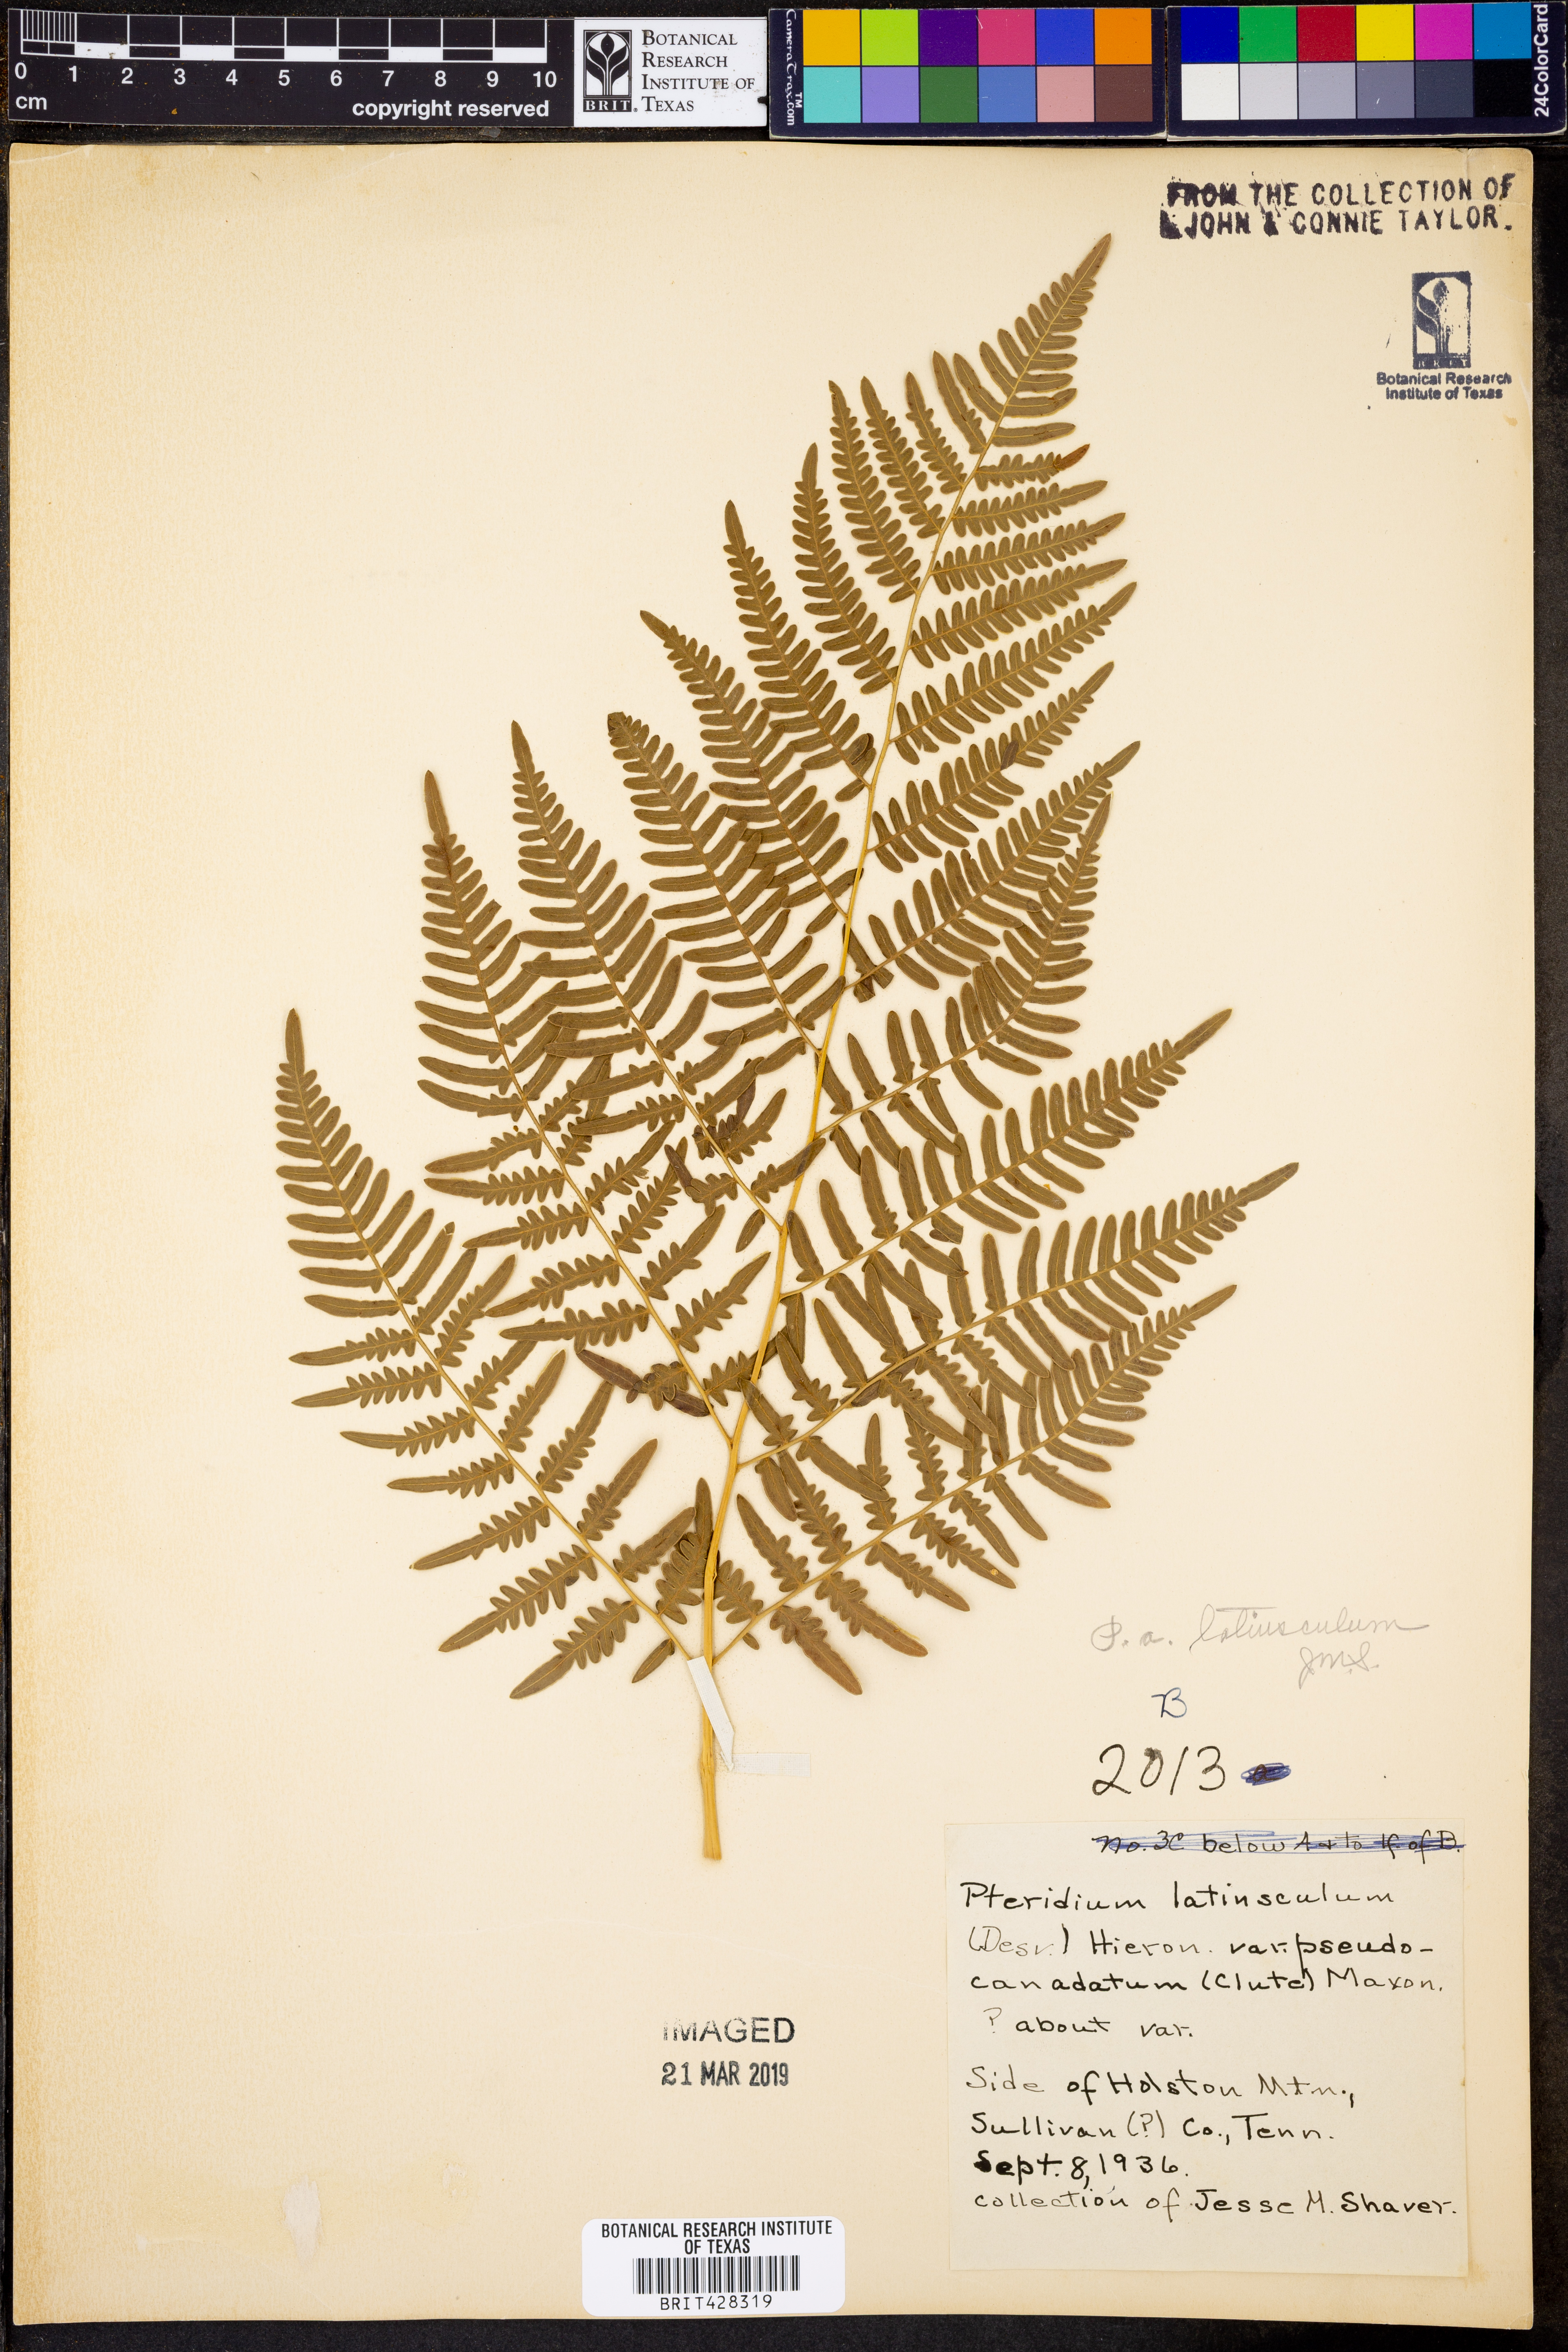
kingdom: Plantae
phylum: Tracheophyta
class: Polypodiopsida
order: Polypodiales
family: Dennstaedtiaceae
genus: Pteridium
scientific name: Pteridium aquilinum
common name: Bracken
